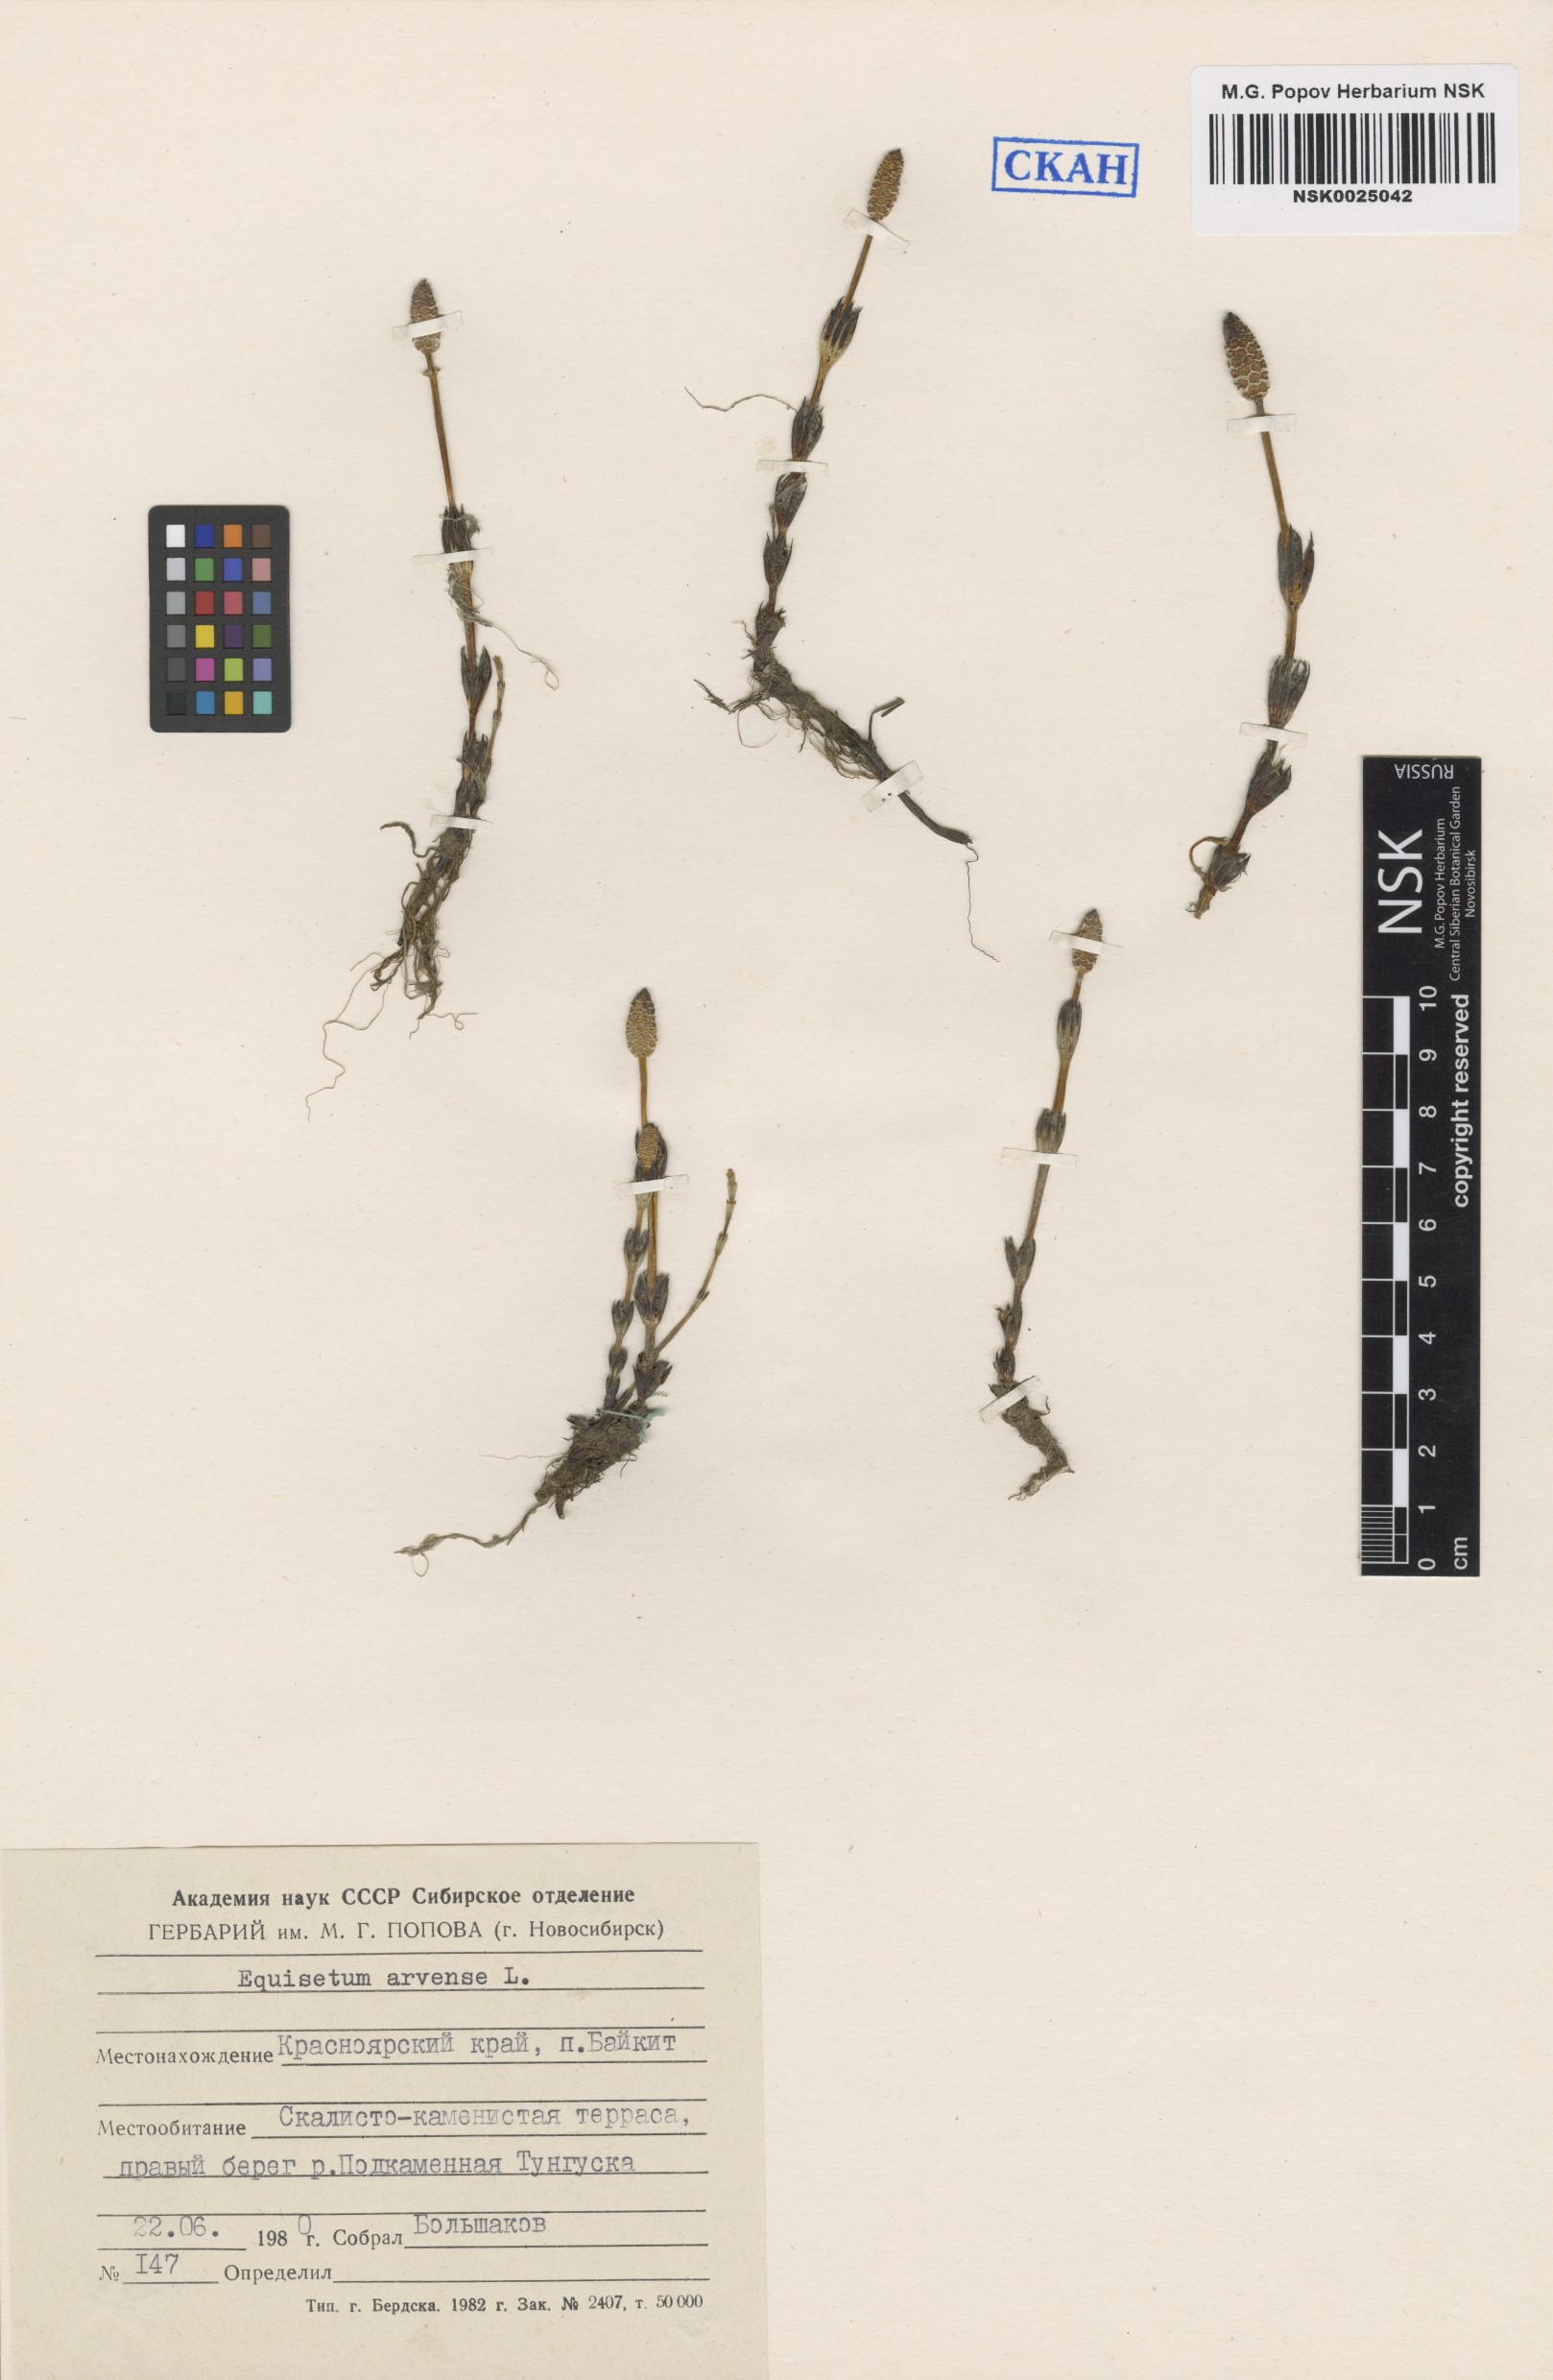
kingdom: Plantae
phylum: Tracheophyta
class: Polypodiopsida
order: Equisetales
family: Equisetaceae
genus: Equisetum
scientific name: Equisetum arvense
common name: Field horsetail
